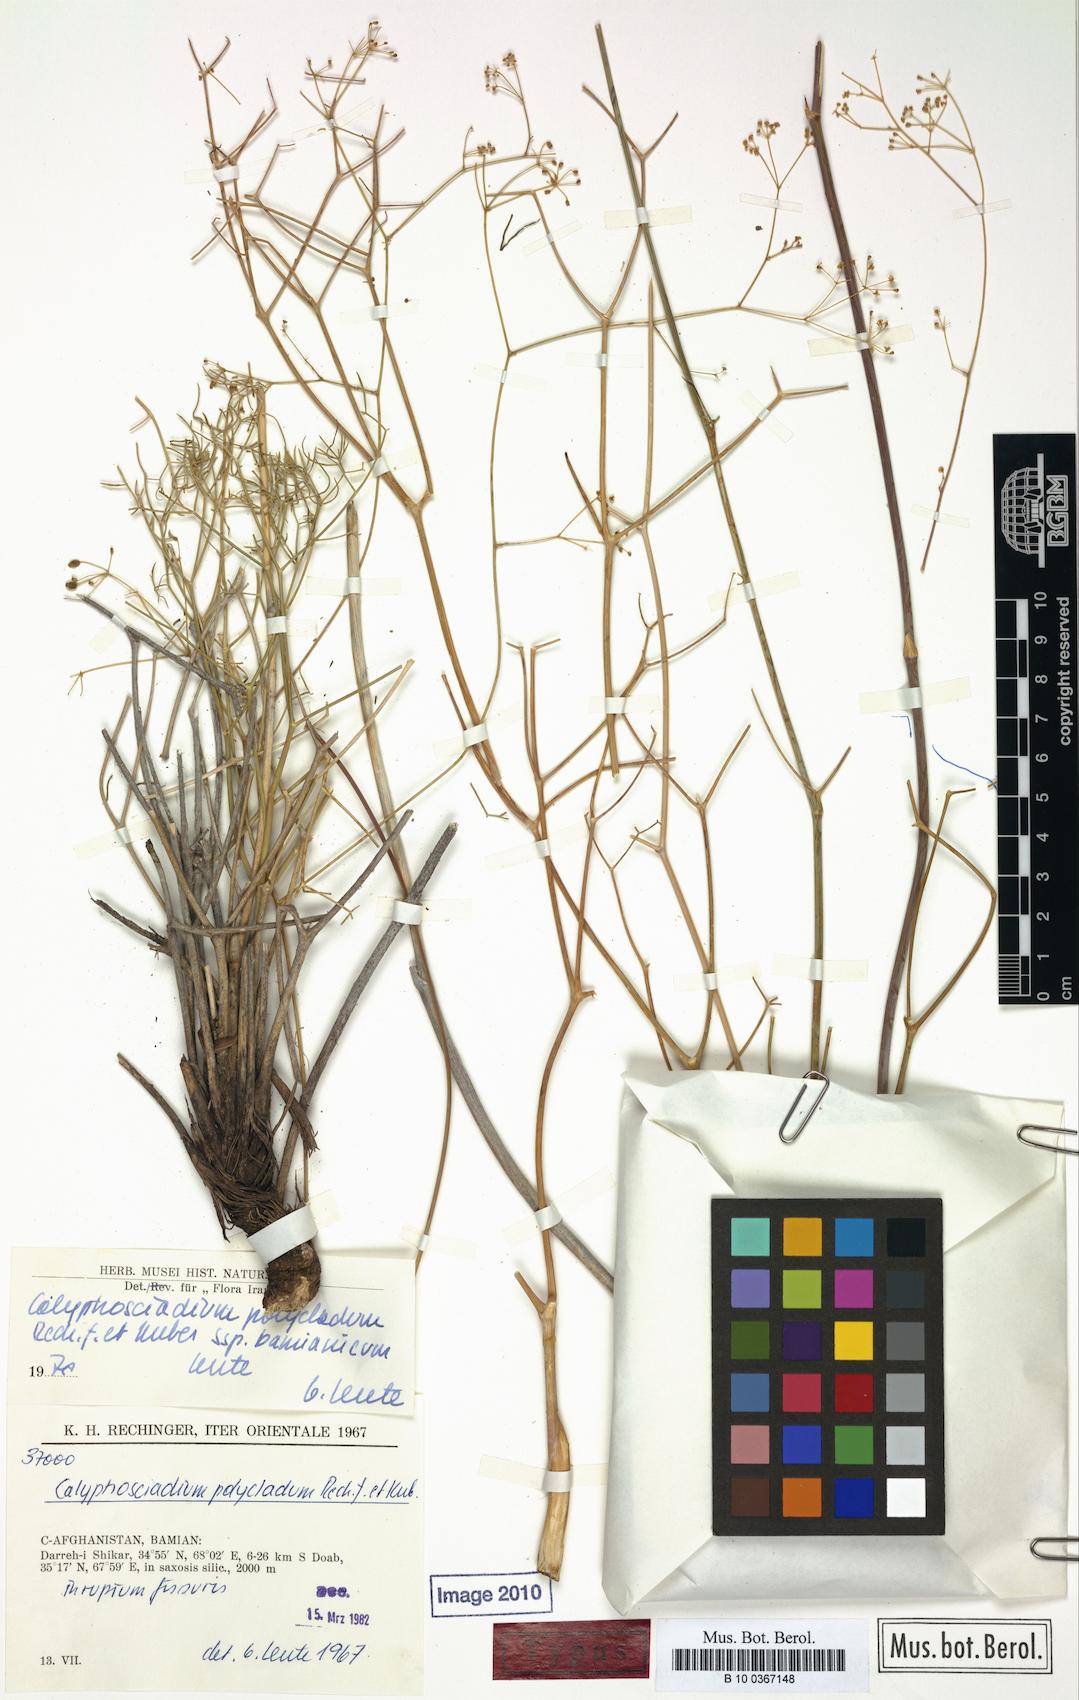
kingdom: Plantae
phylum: Tracheophyta
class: Magnoliopsida
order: Apiales
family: Apiaceae
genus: Calyptrosciadium
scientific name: Calyptrosciadium bungei
